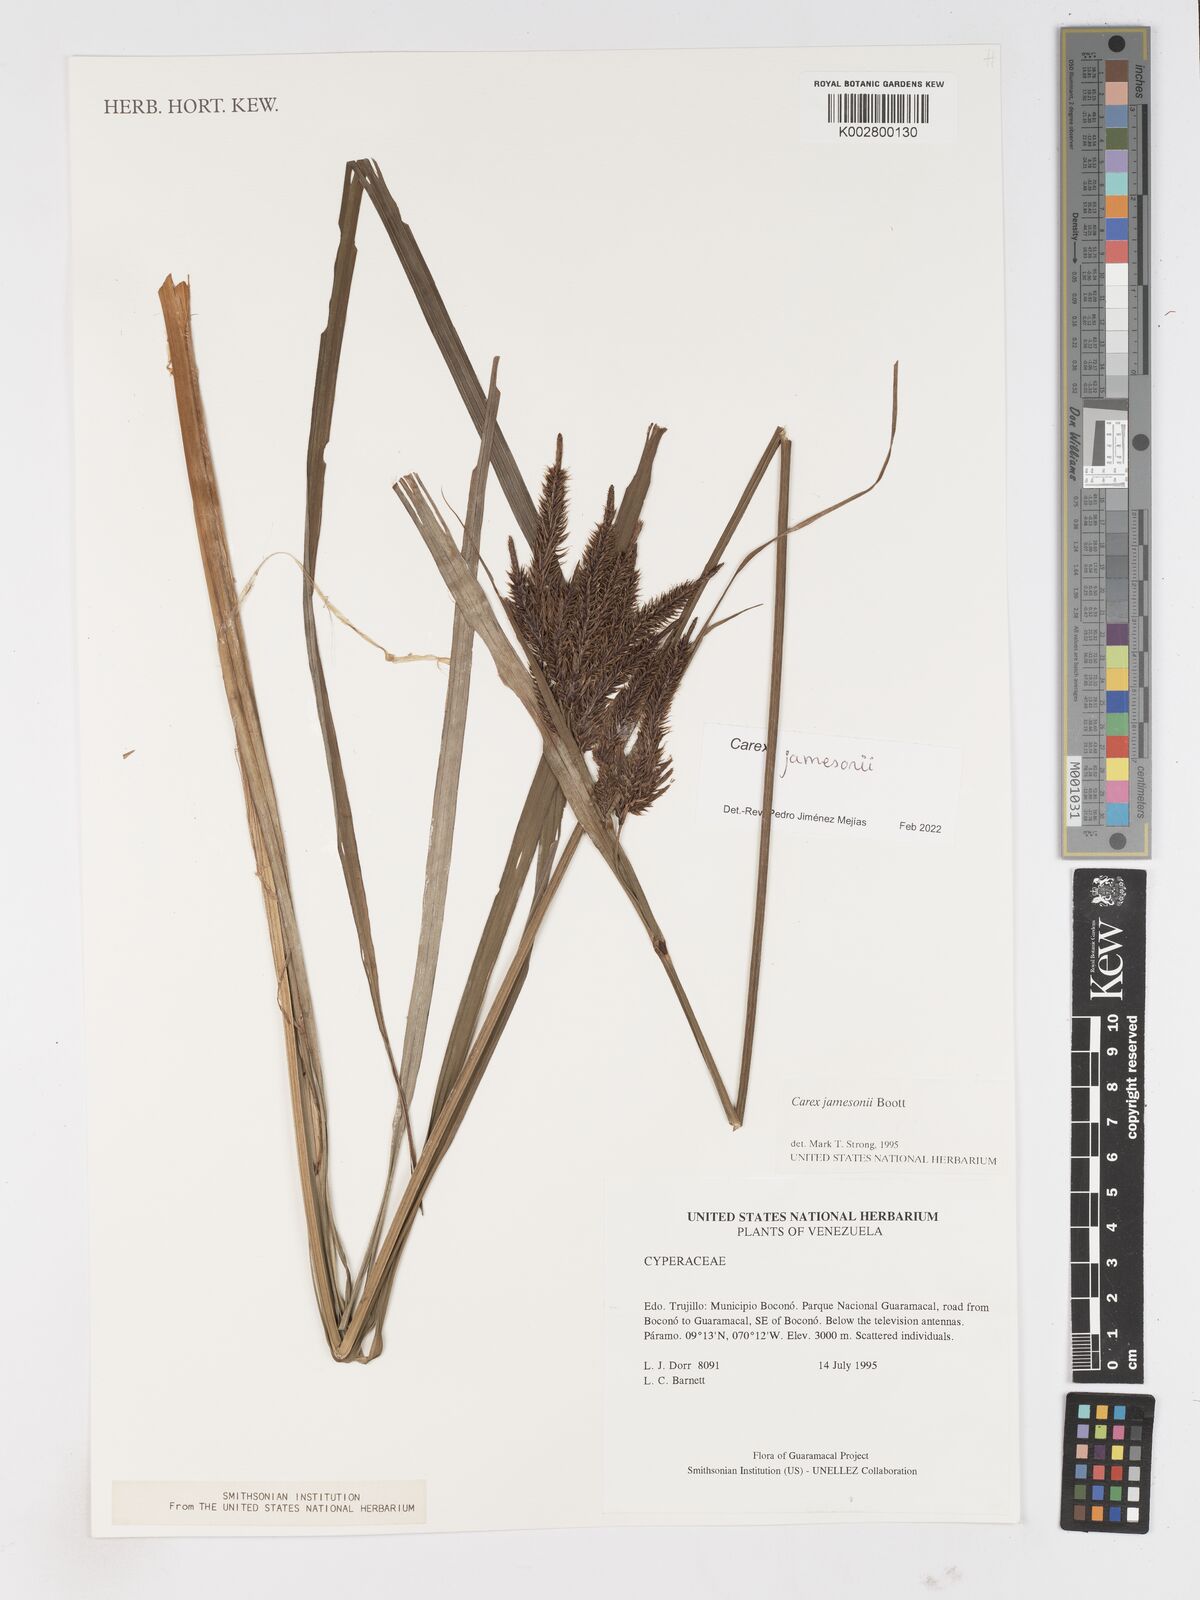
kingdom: Plantae
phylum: Tracheophyta
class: Liliopsida
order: Poales
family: Cyperaceae
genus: Carex
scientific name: Carex jamesonii
